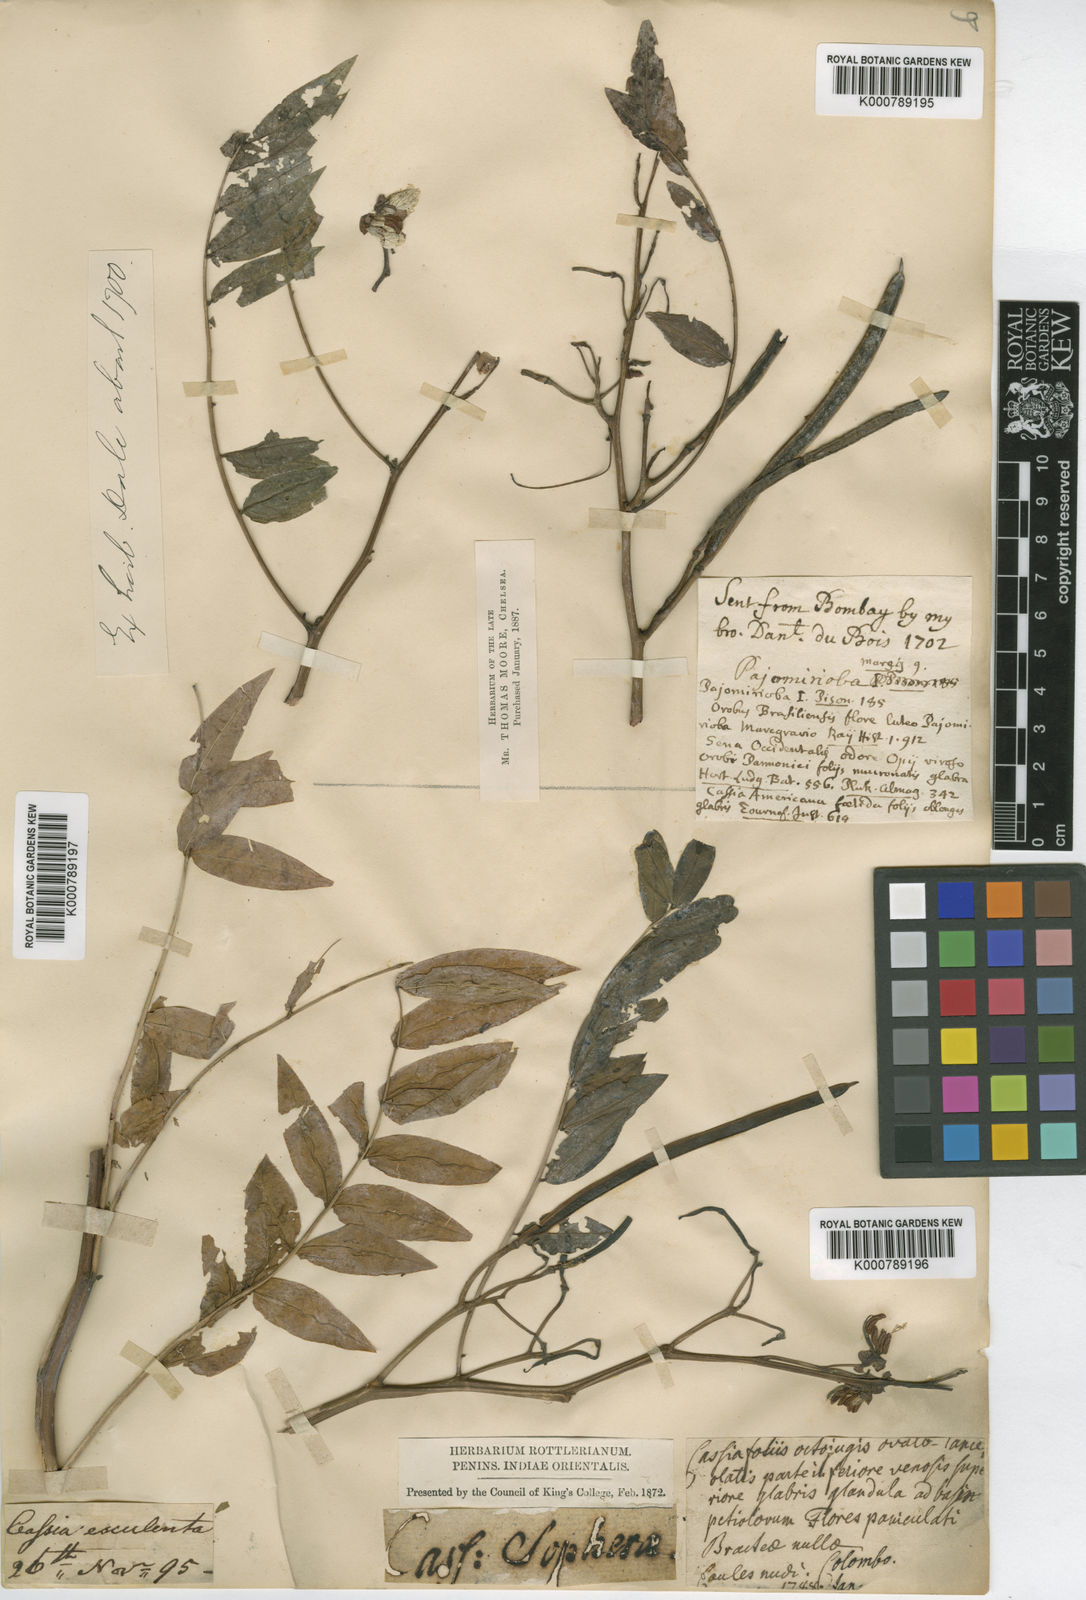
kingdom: Plantae
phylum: Tracheophyta
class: Magnoliopsida
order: Fabales
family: Fabaceae
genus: Senna
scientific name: Senna sophera
